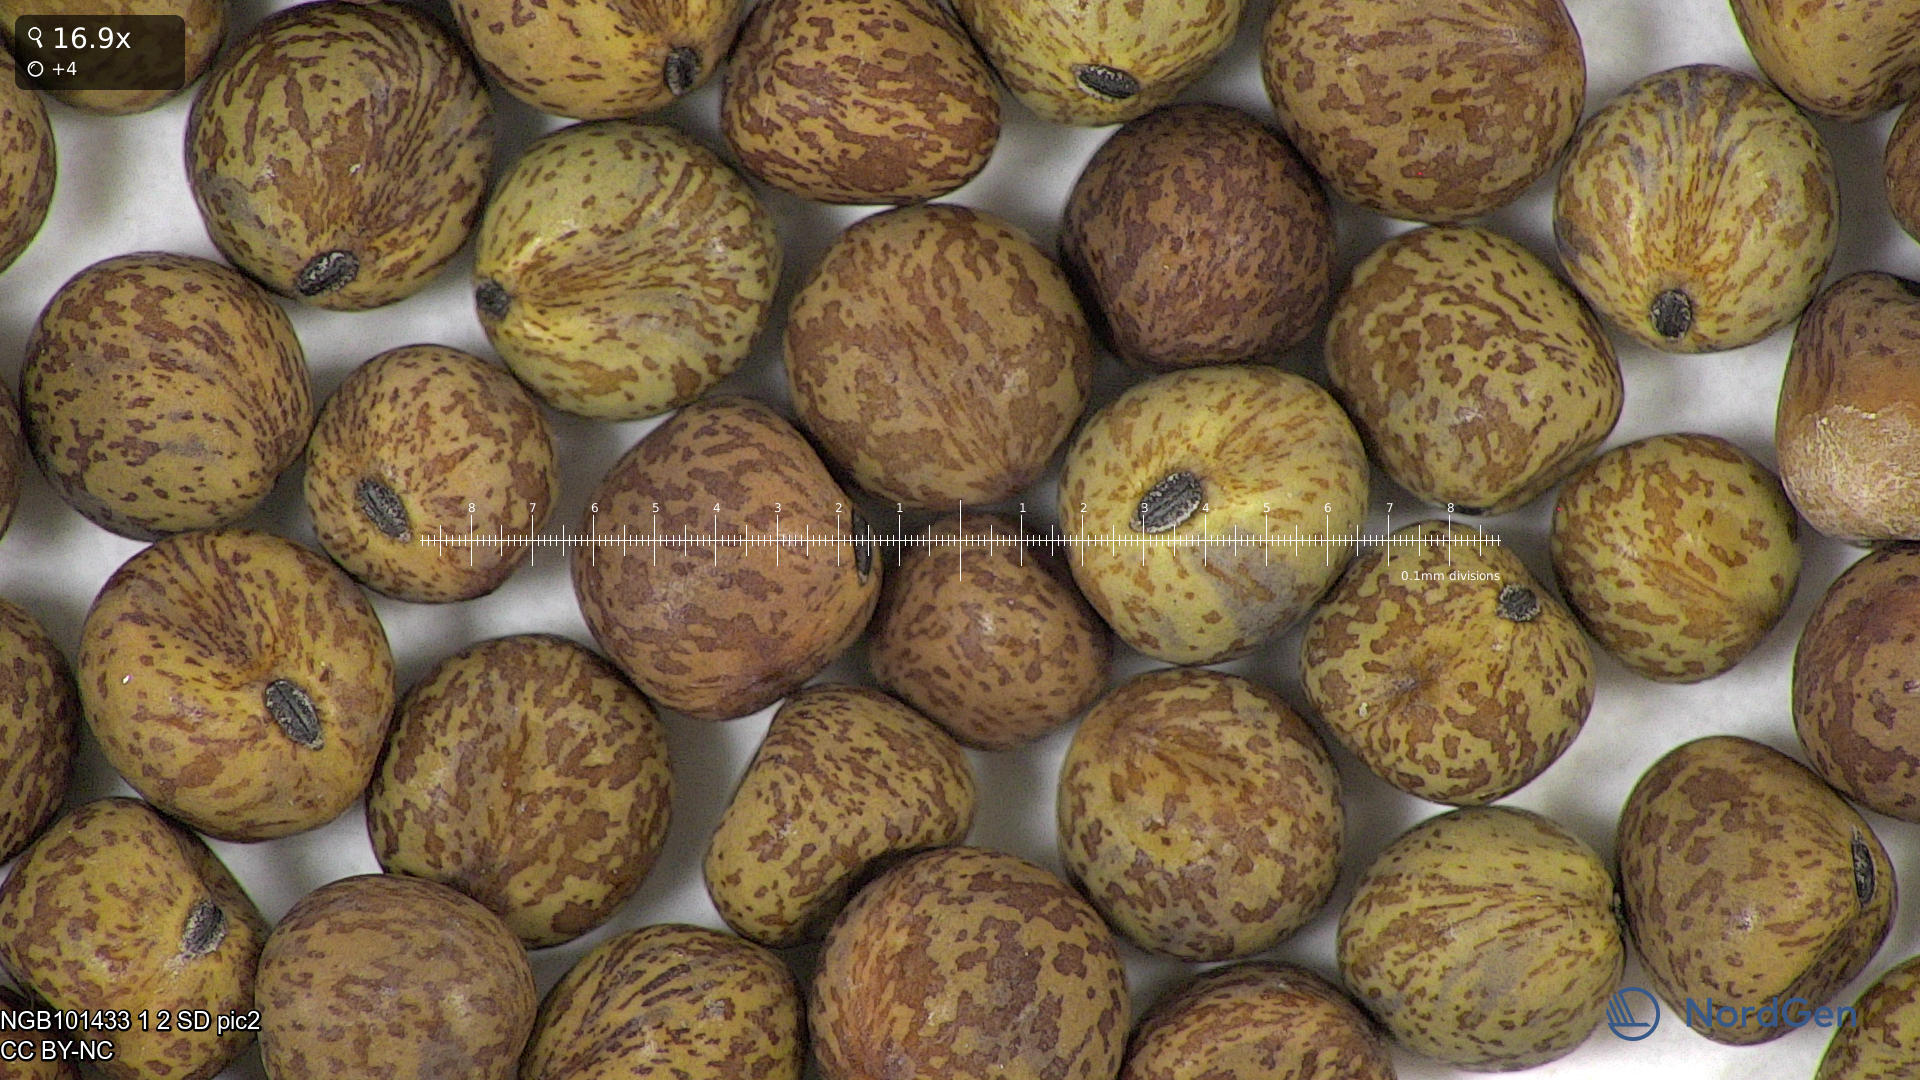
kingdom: Plantae
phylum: Tracheophyta
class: Magnoliopsida
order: Fabales
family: Fabaceae
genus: Lathyrus
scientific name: Lathyrus oleraceus
